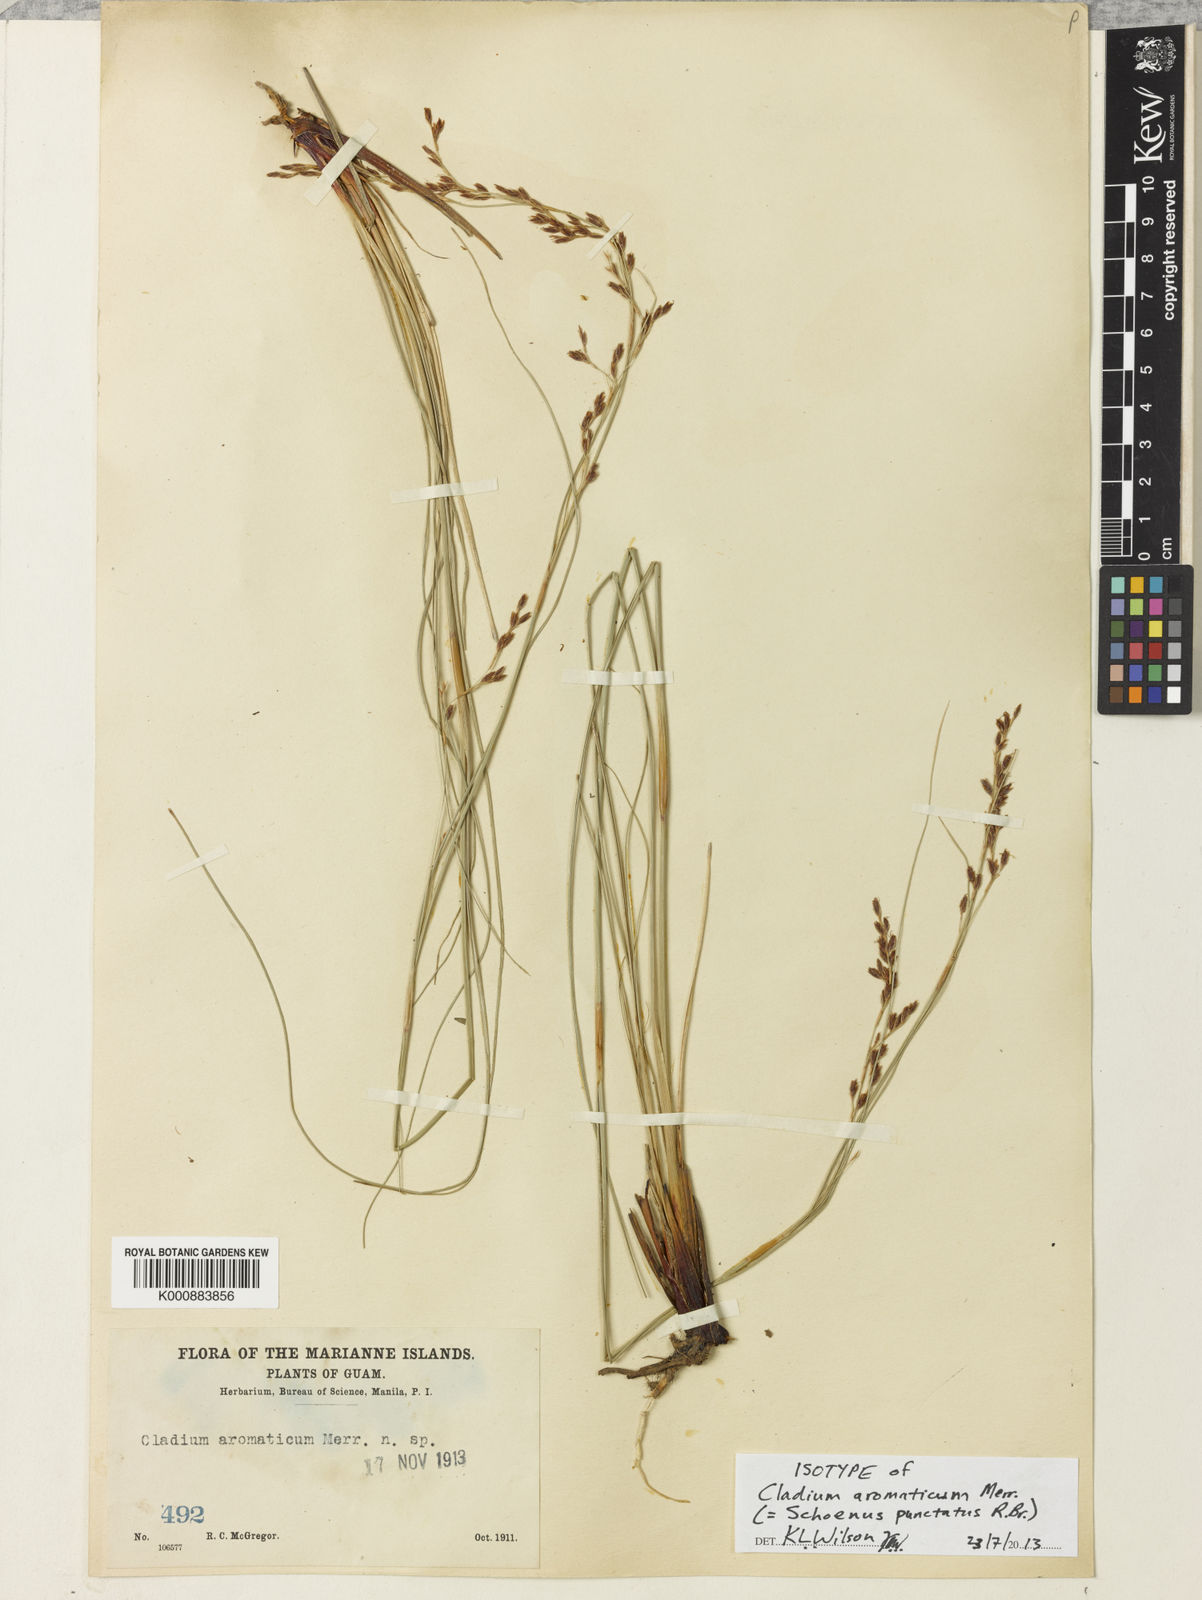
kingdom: Plantae
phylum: Tracheophyta
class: Liliopsida
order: Poales
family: Cyperaceae
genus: Schoenus
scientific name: Schoenus punctatus
